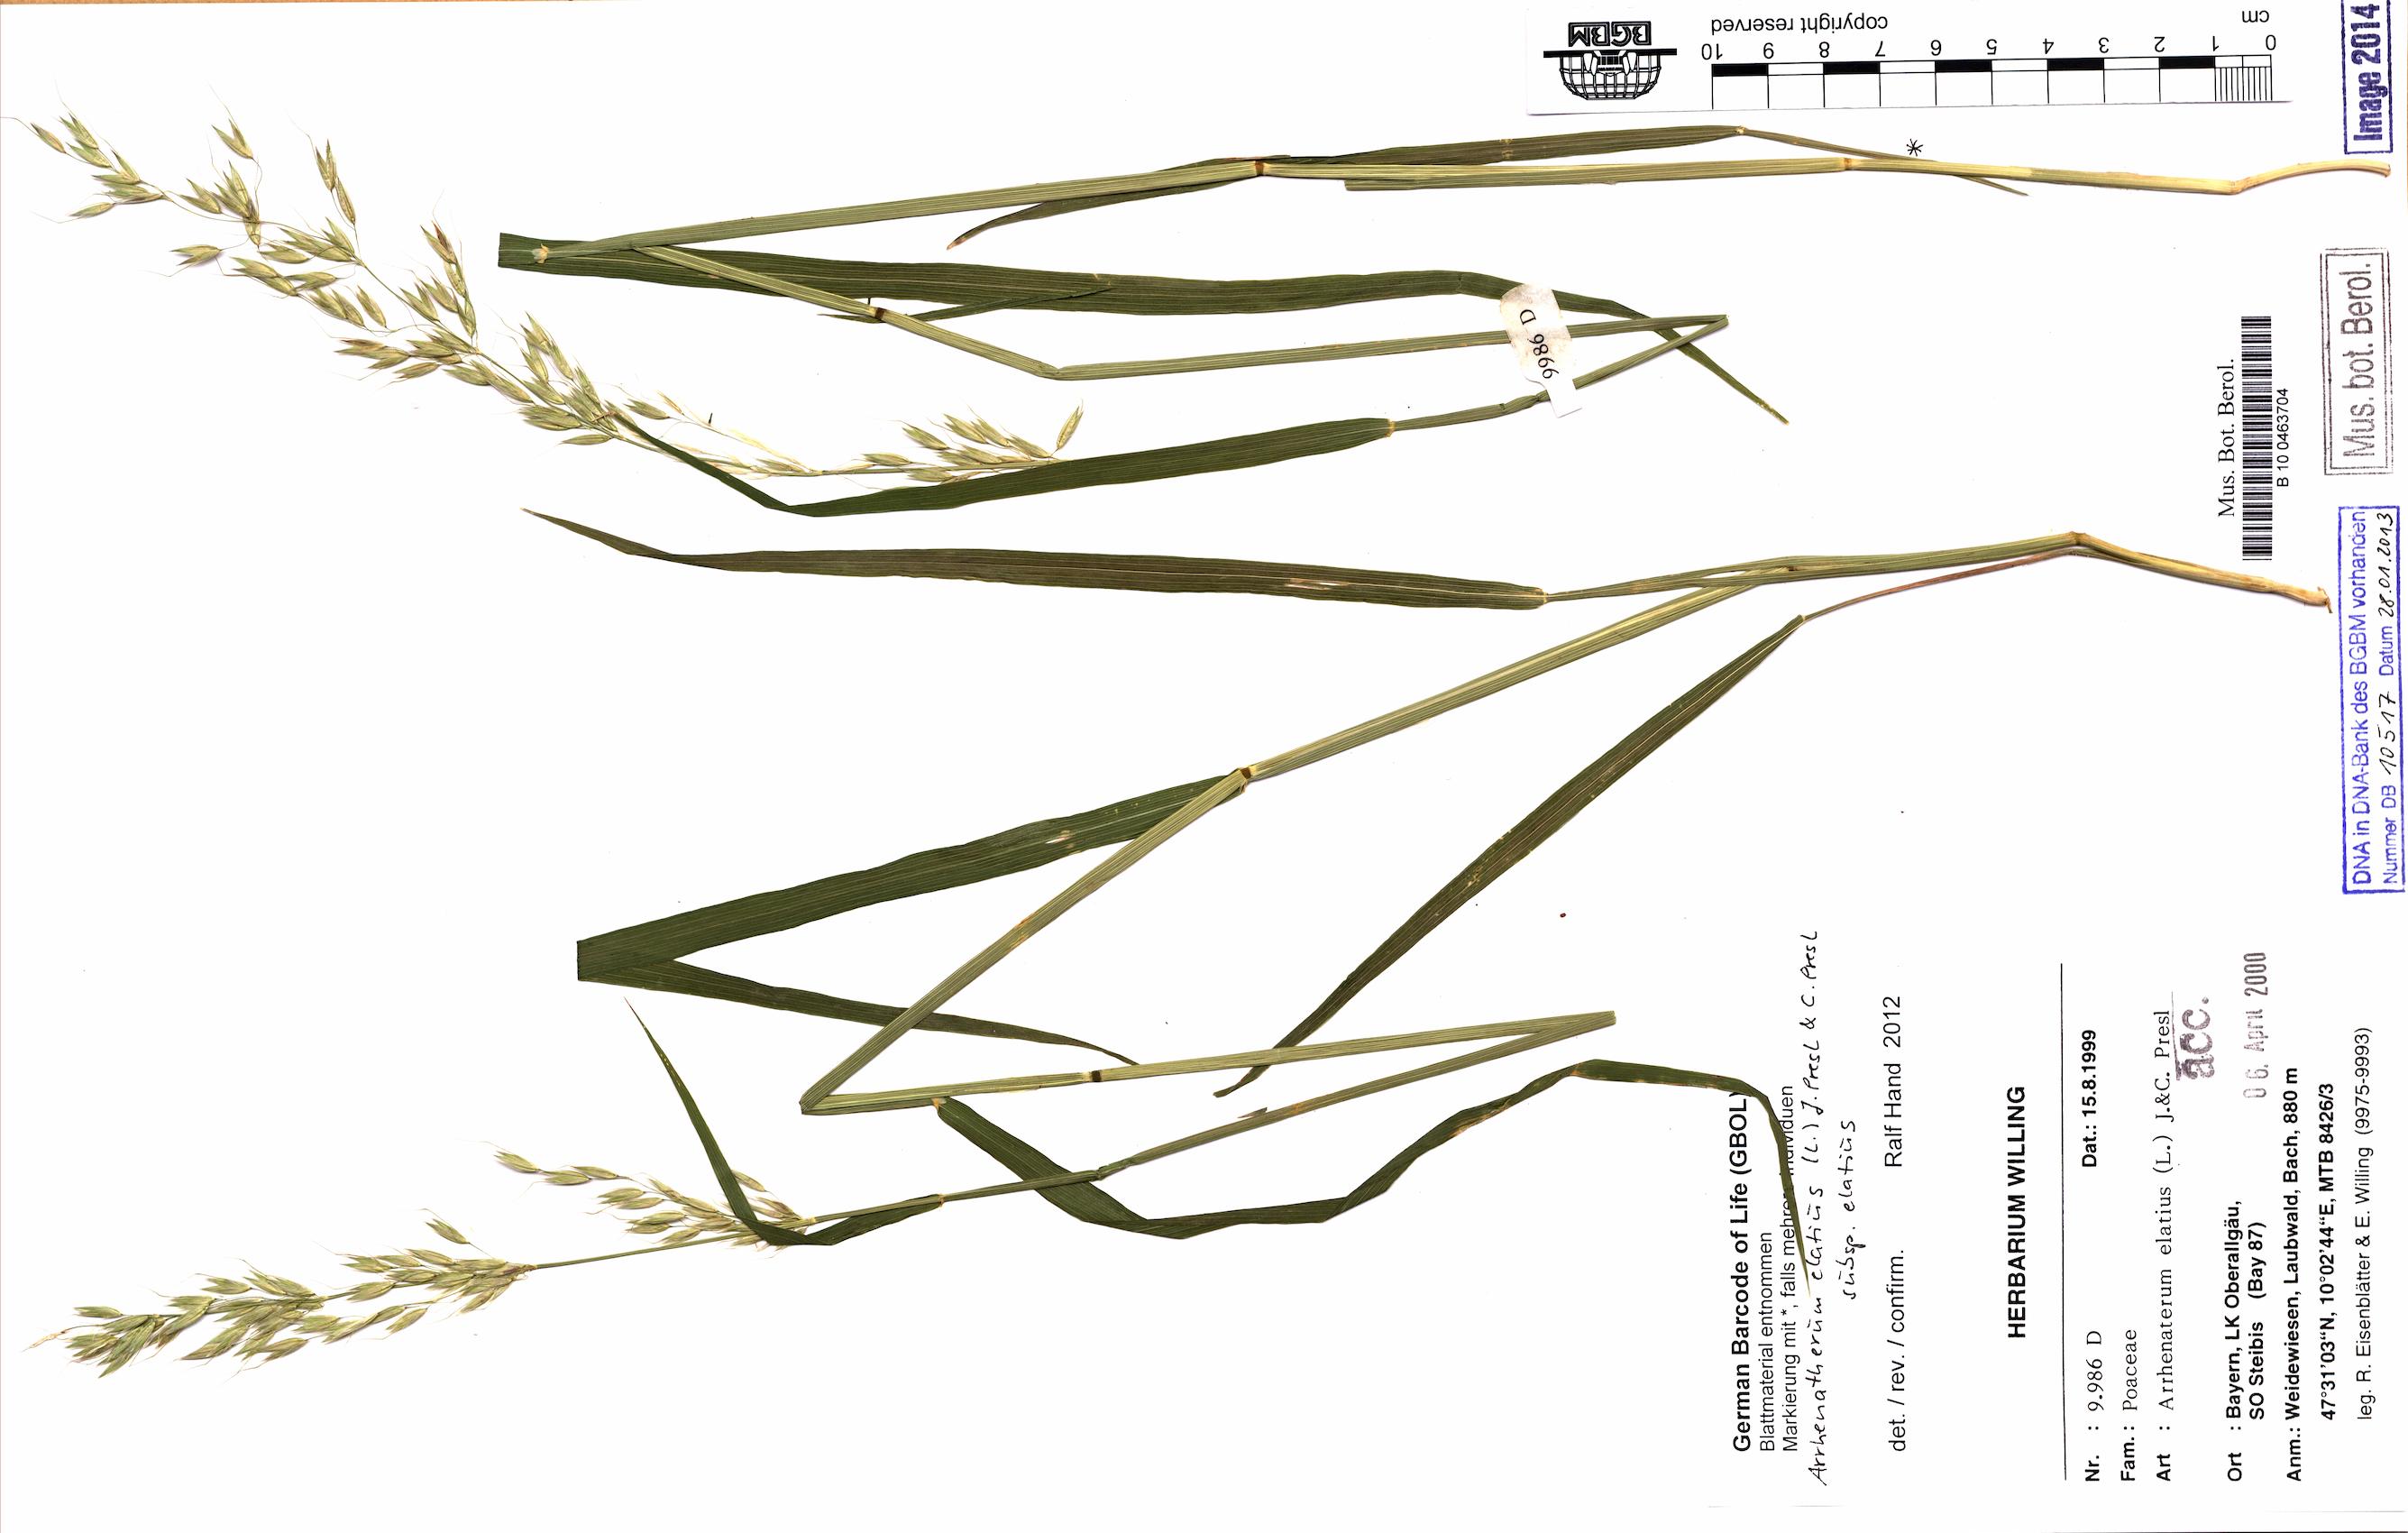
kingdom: Plantae
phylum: Tracheophyta
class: Liliopsida
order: Poales
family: Poaceae
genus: Arrhenatherum
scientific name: Arrhenatherum elatius
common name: Tall oatgrass
